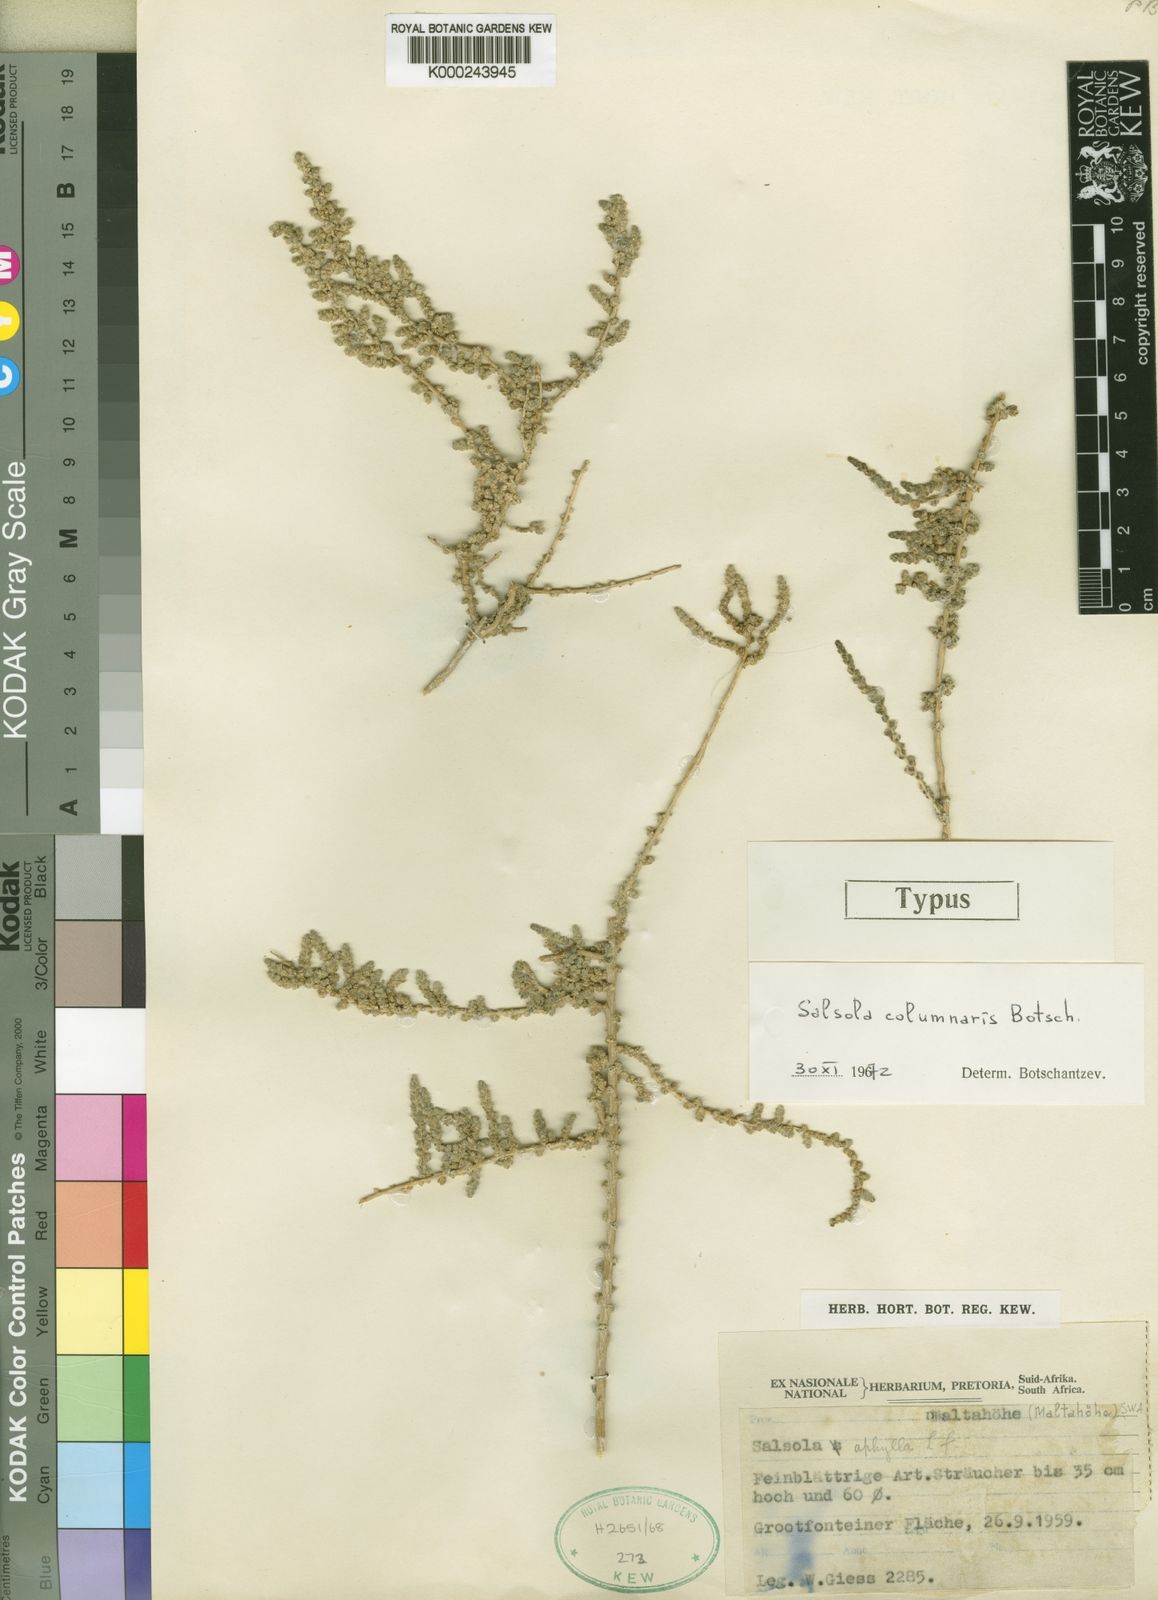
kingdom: Plantae
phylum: Tracheophyta
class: Magnoliopsida
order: Caryophyllales
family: Amaranthaceae
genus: Caroxylon
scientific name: Caroxylon columnare
